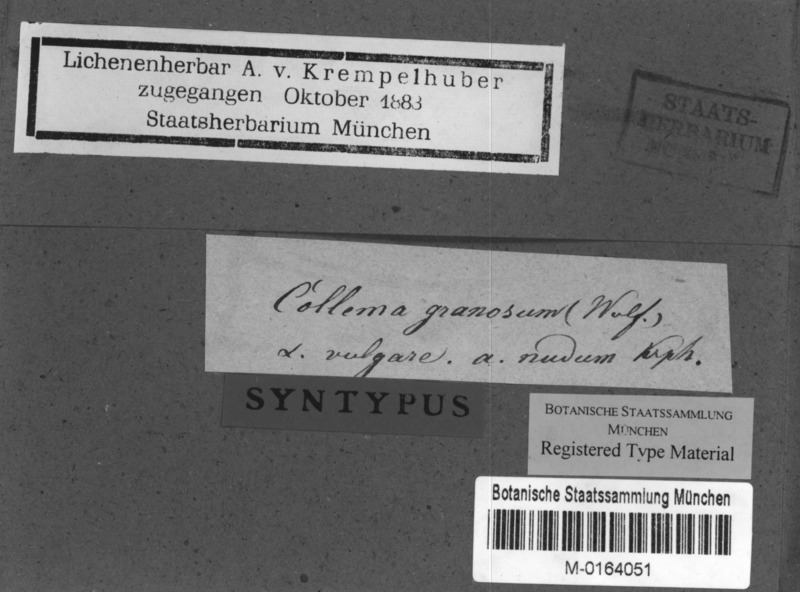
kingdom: Fungi
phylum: Ascomycota
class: Lecanoromycetes
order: Peltigerales
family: Collemataceae
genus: Lathagrium
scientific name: Lathagrium auriforme
